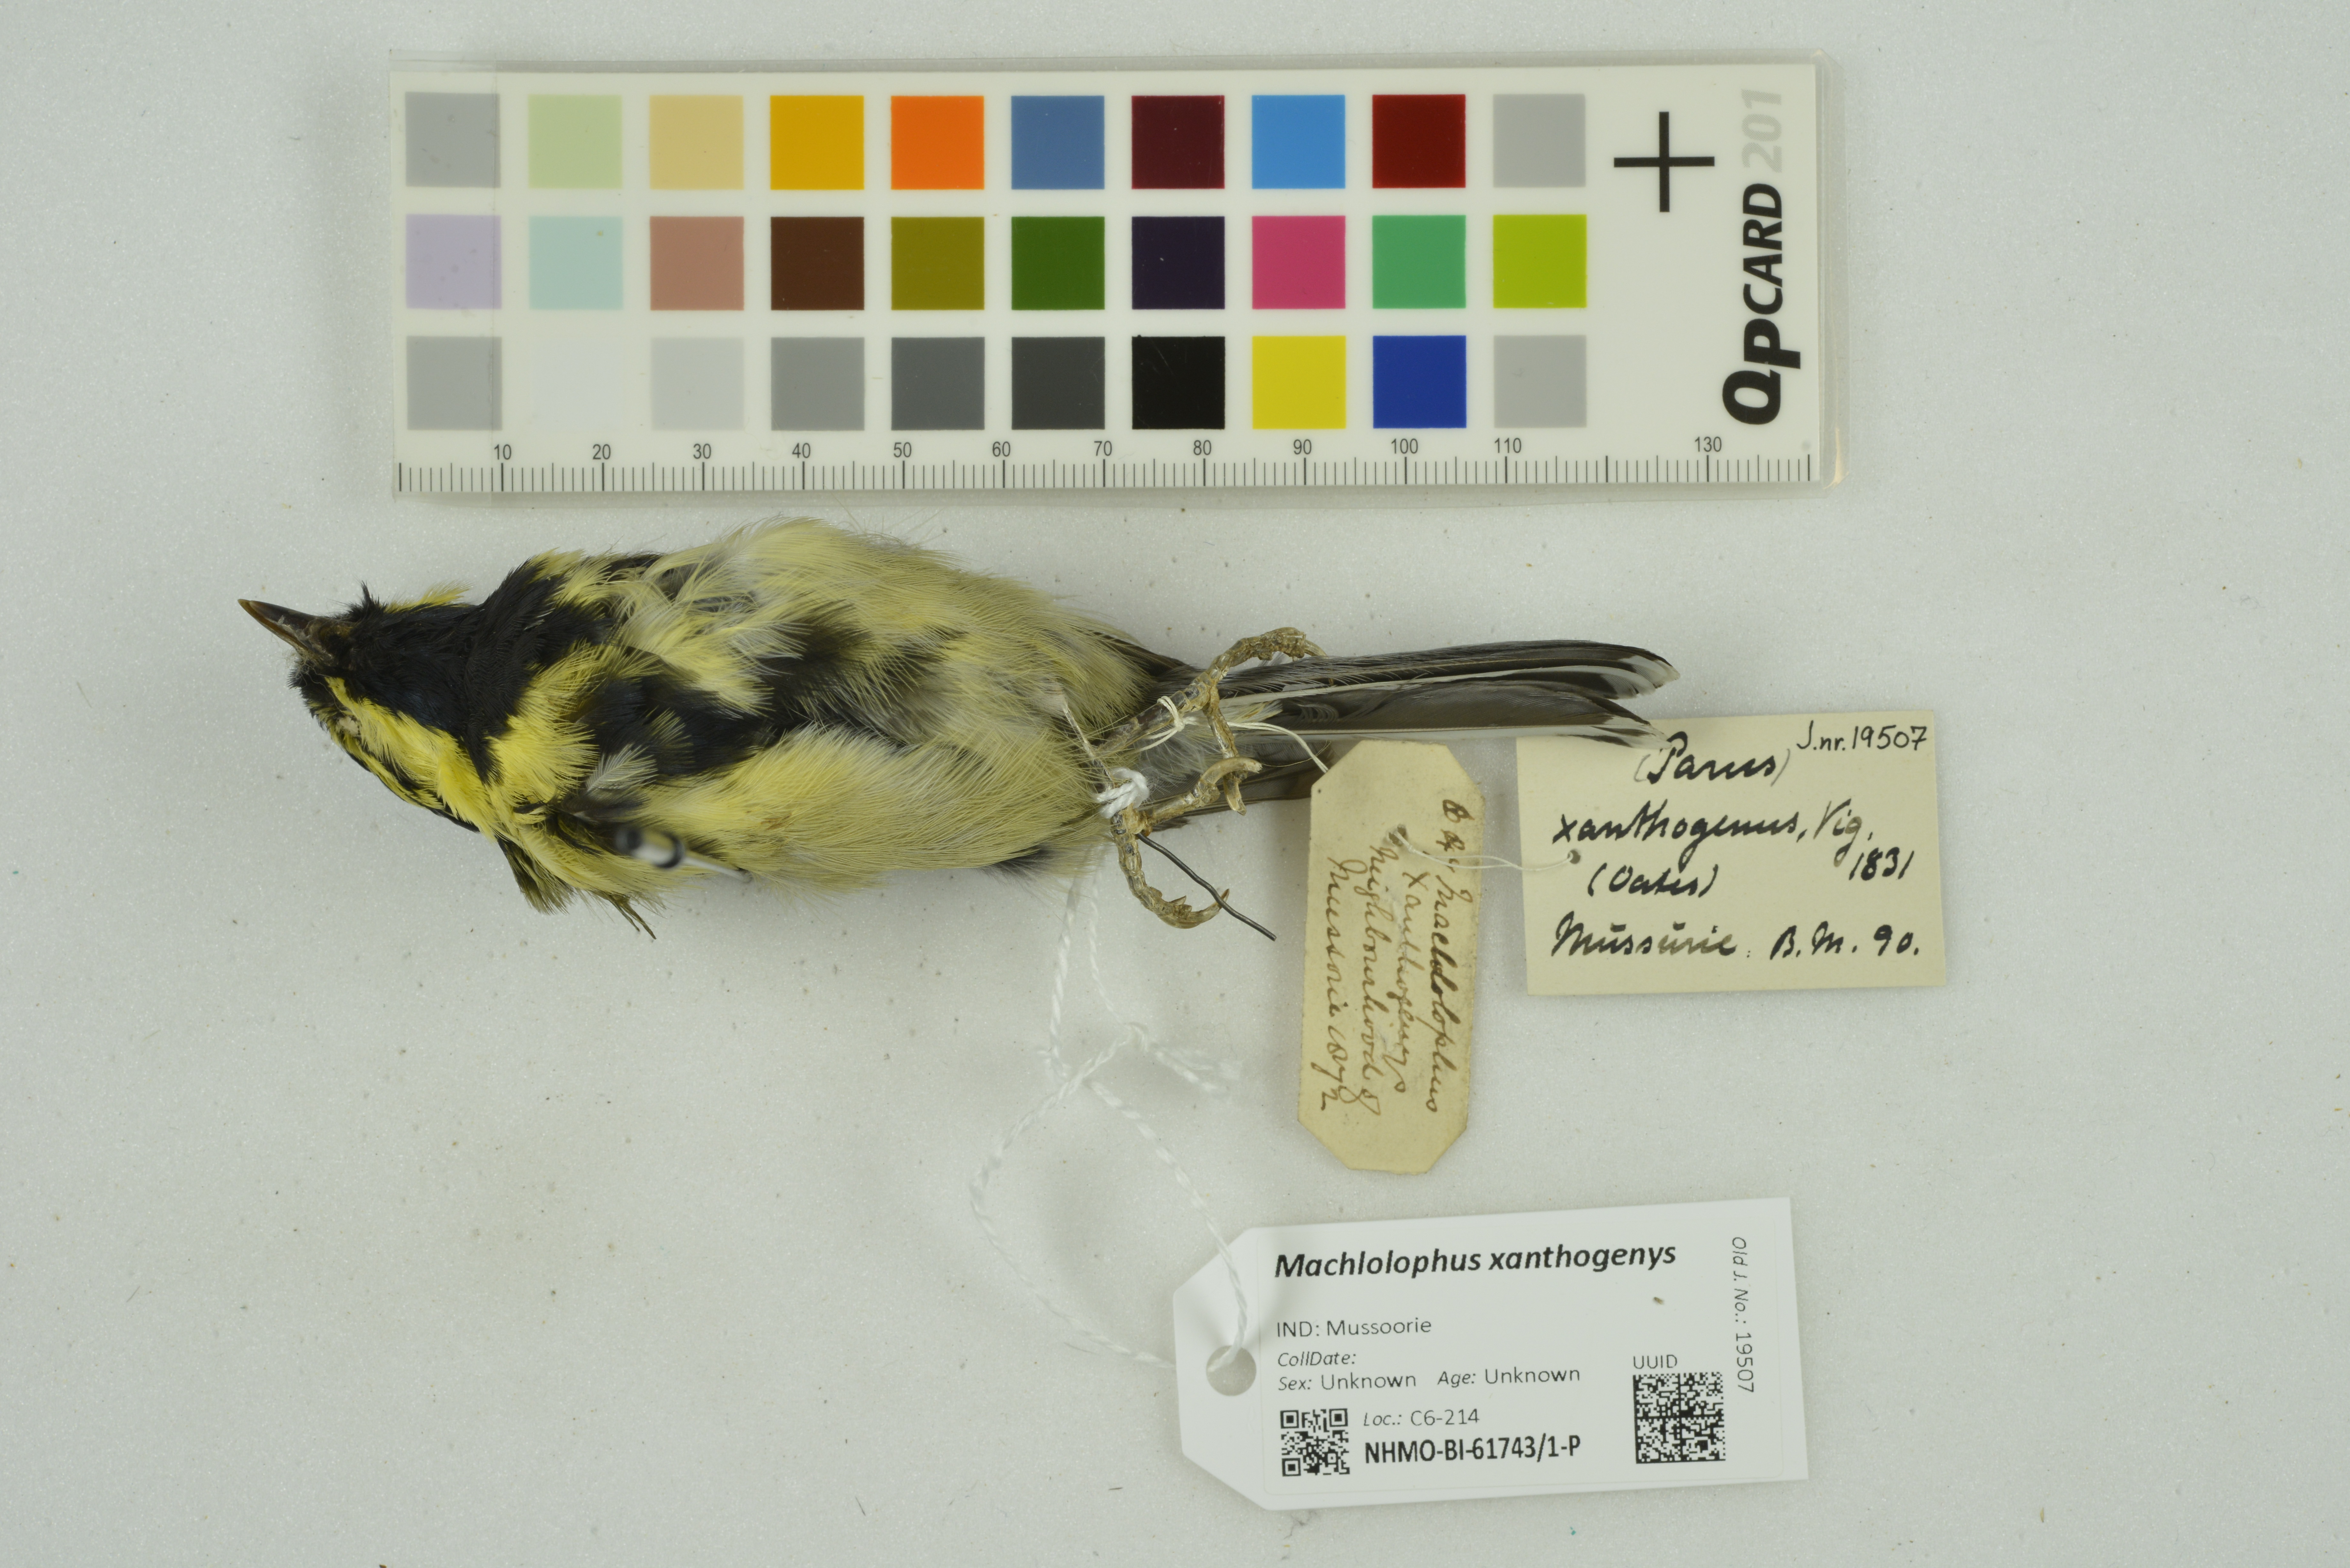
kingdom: Animalia
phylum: Chordata
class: Aves
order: Passeriformes
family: Paridae
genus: Parus
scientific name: Parus xanthogenys
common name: Black-lored tit
